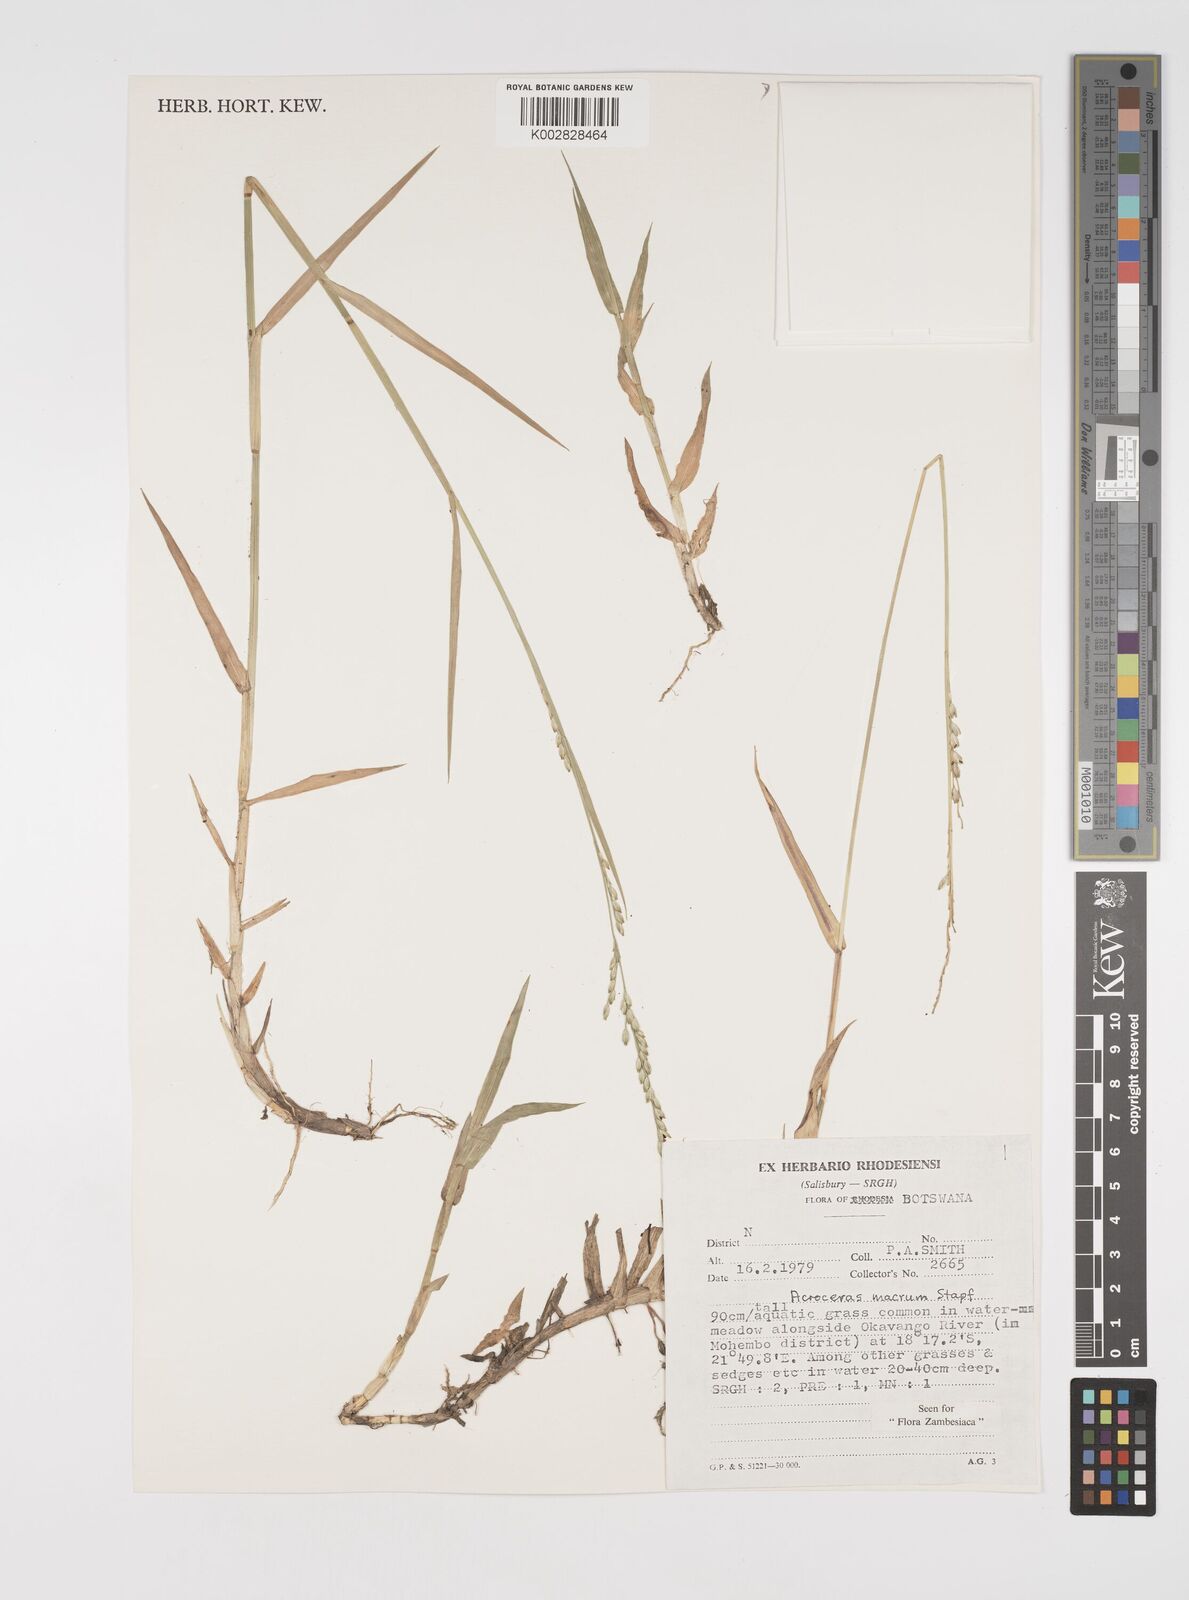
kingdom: Plantae
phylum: Tracheophyta
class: Liliopsida
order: Poales
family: Poaceae
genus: Acroceras
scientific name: Acroceras macrum
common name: Nyl grass
